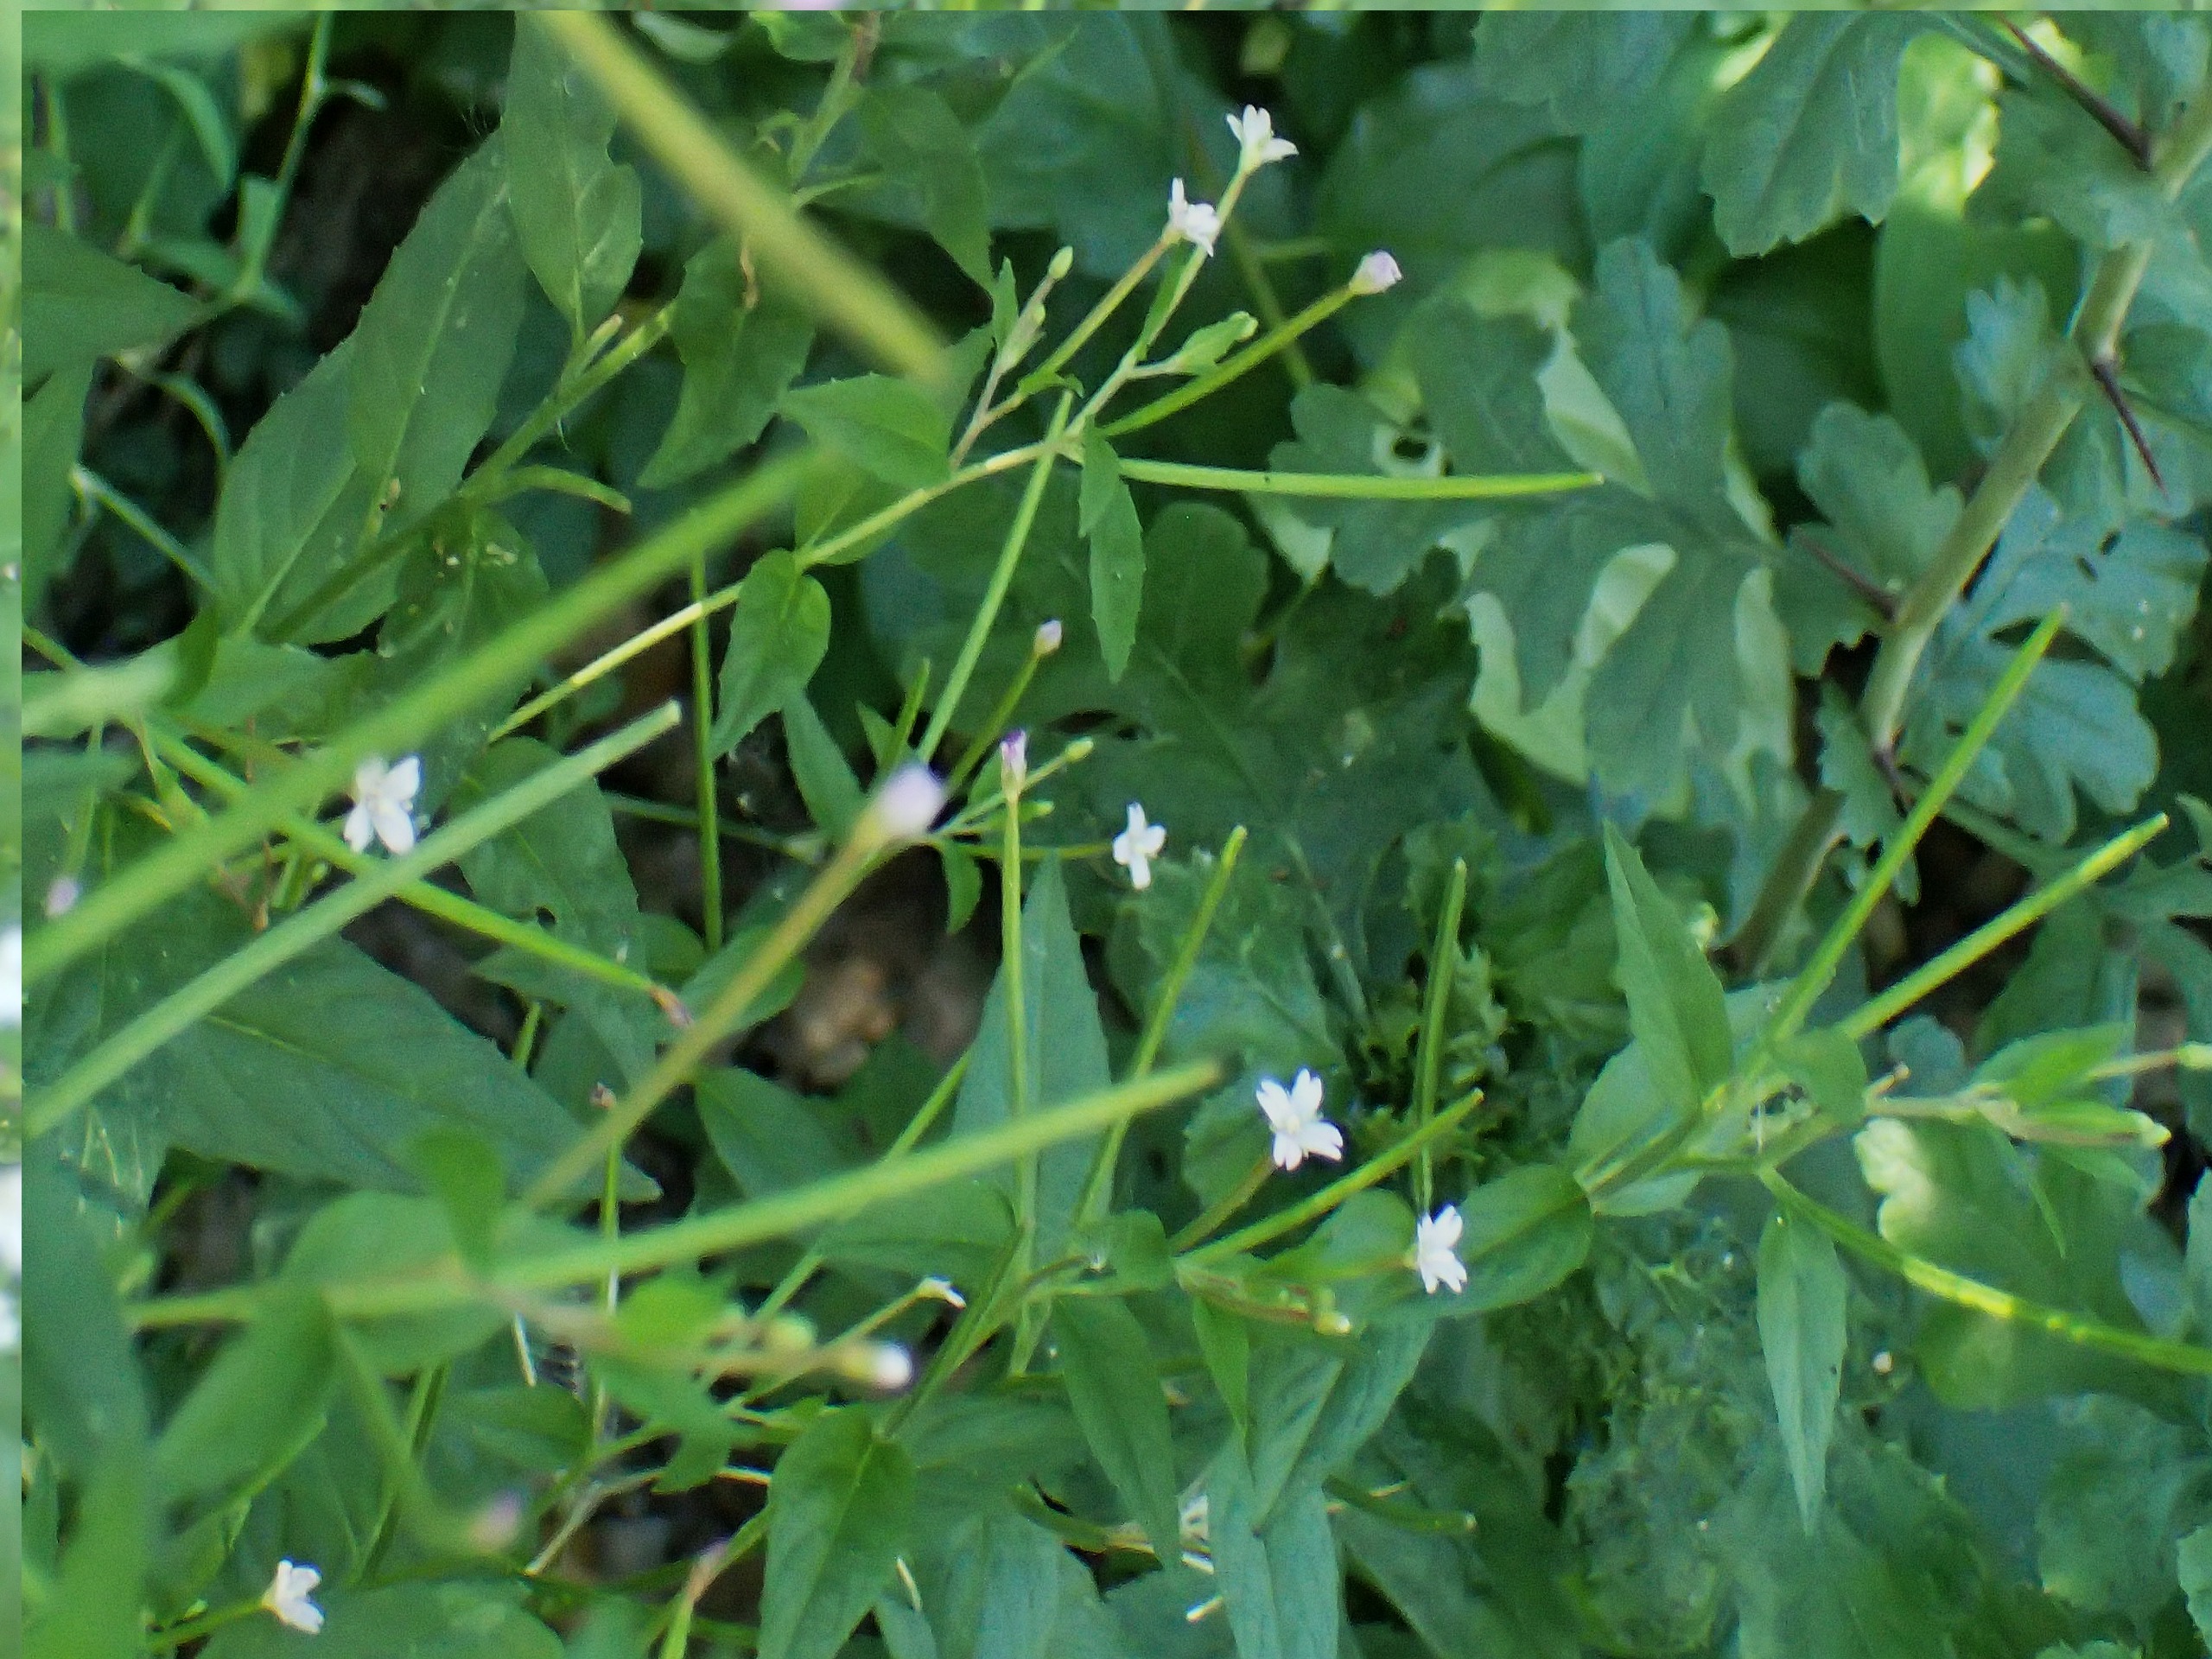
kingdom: Plantae
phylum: Tracheophyta
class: Magnoliopsida
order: Myrtales
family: Onagraceae
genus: Epilobium
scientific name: Epilobium ciliatum
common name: Hvid dueurt
